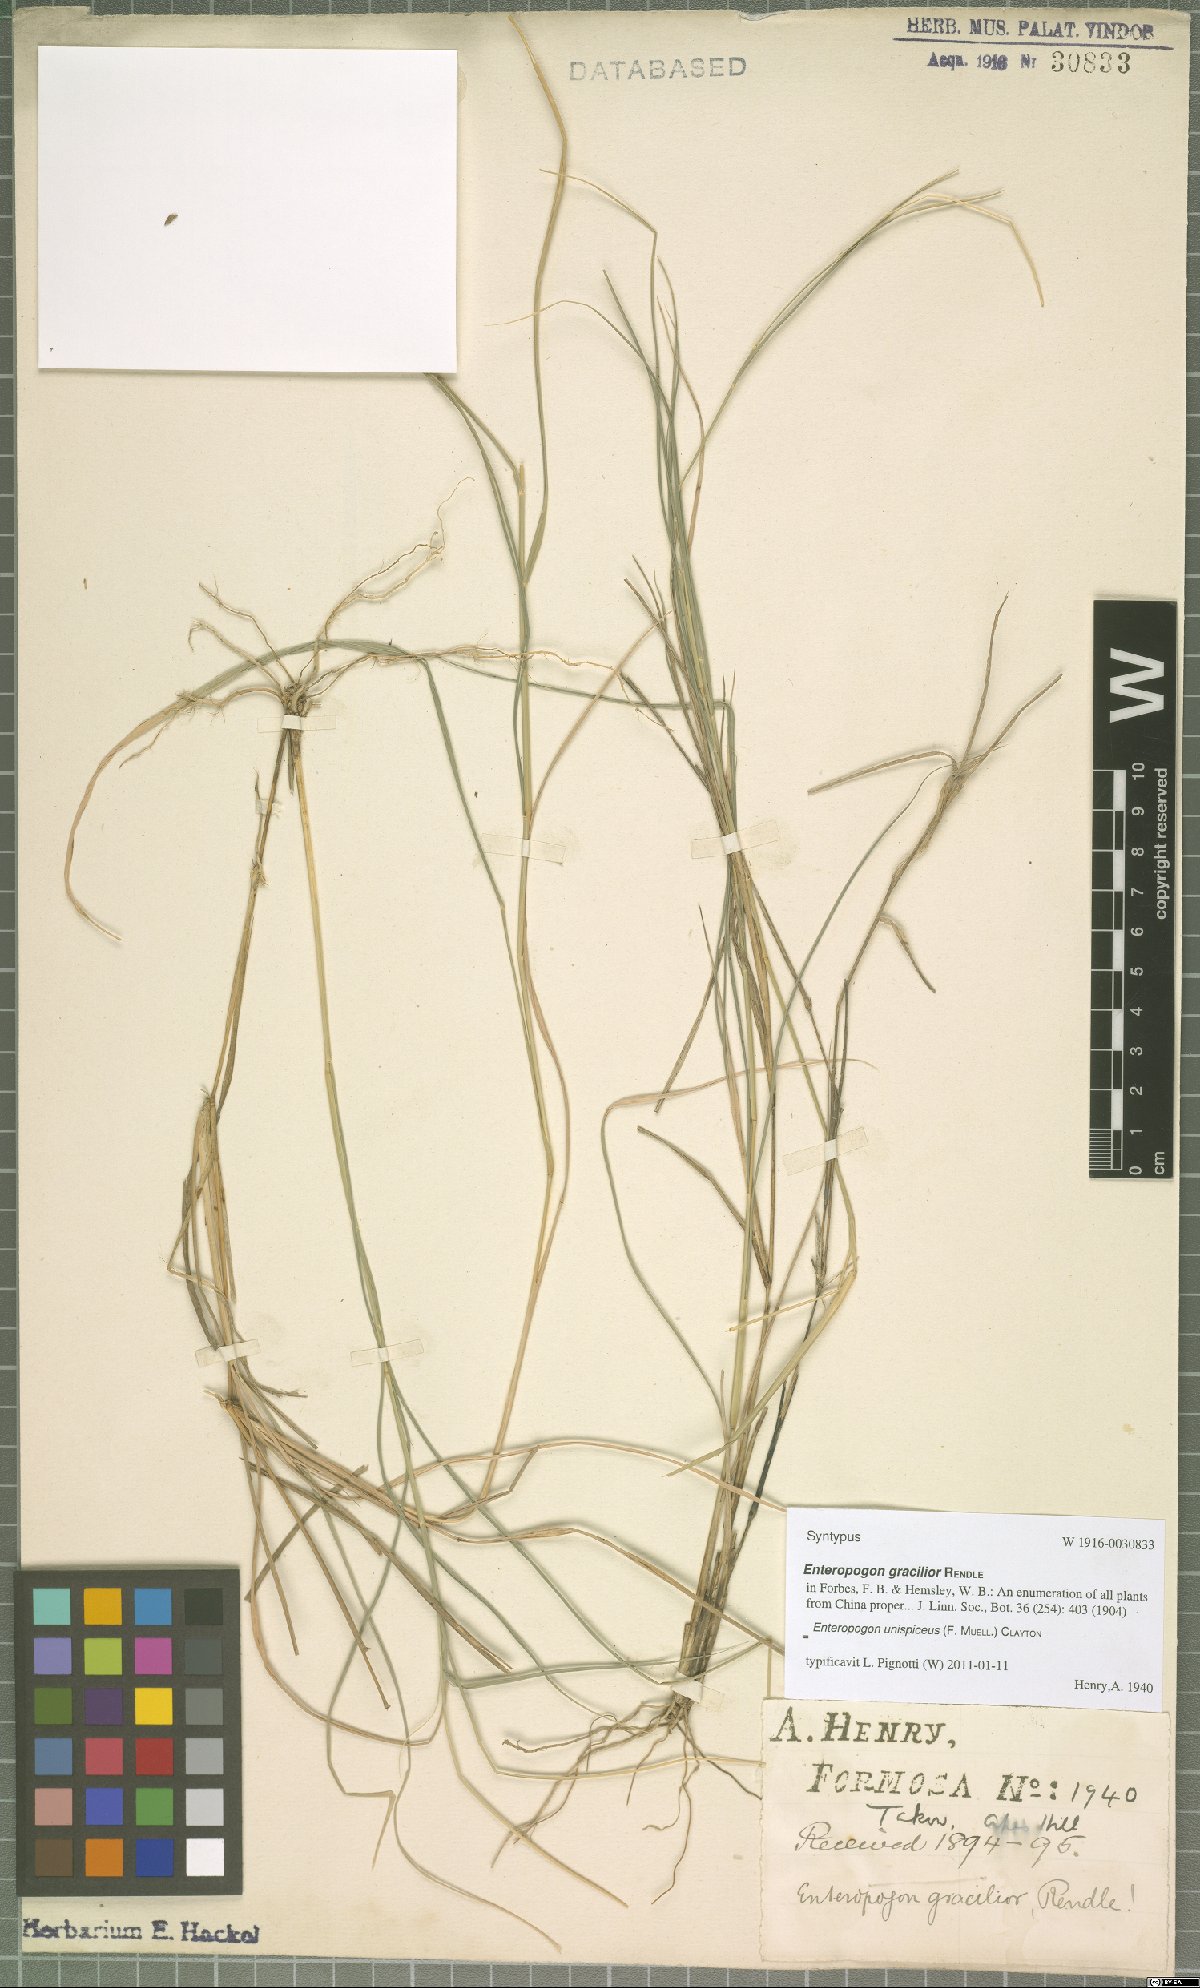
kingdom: Plantae
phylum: Tracheophyta
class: Liliopsida
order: Poales
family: Poaceae
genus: Enteropogon
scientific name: Enteropogon unispiceus
